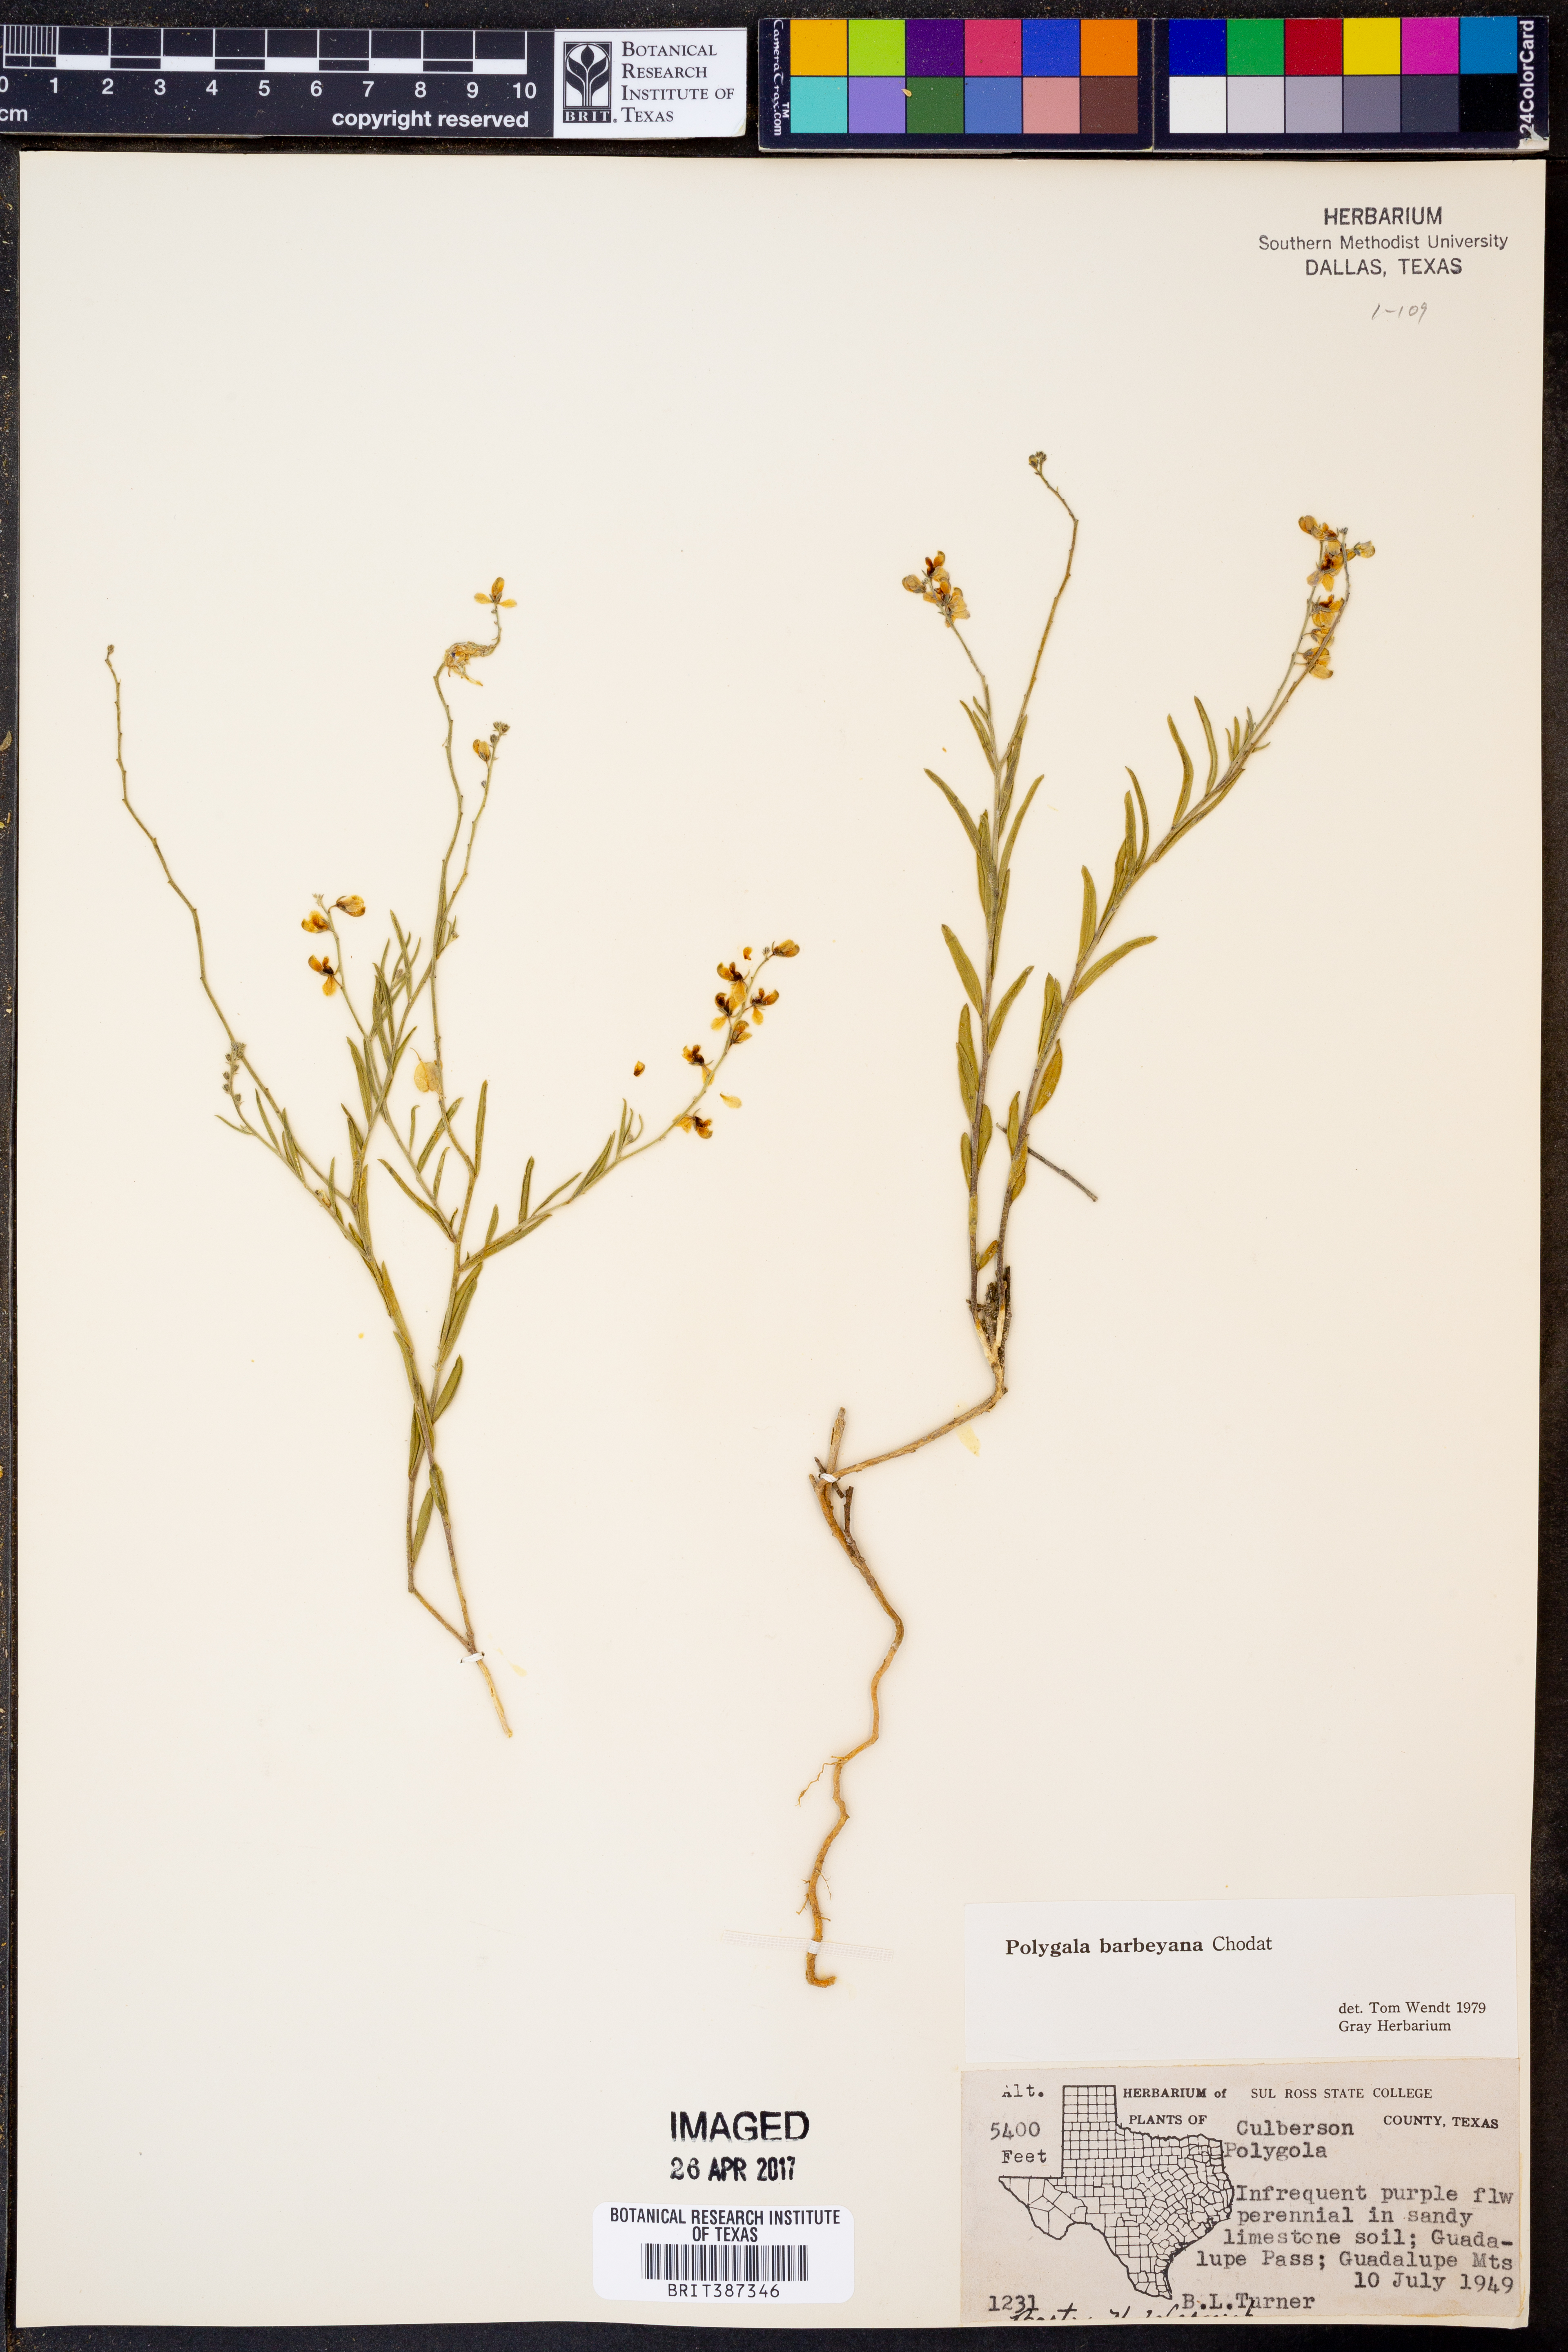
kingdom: Plantae
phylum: Tracheophyta
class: Magnoliopsida
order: Fabales
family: Polygalaceae
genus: Hebecarpa
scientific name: Hebecarpa barbeyana
